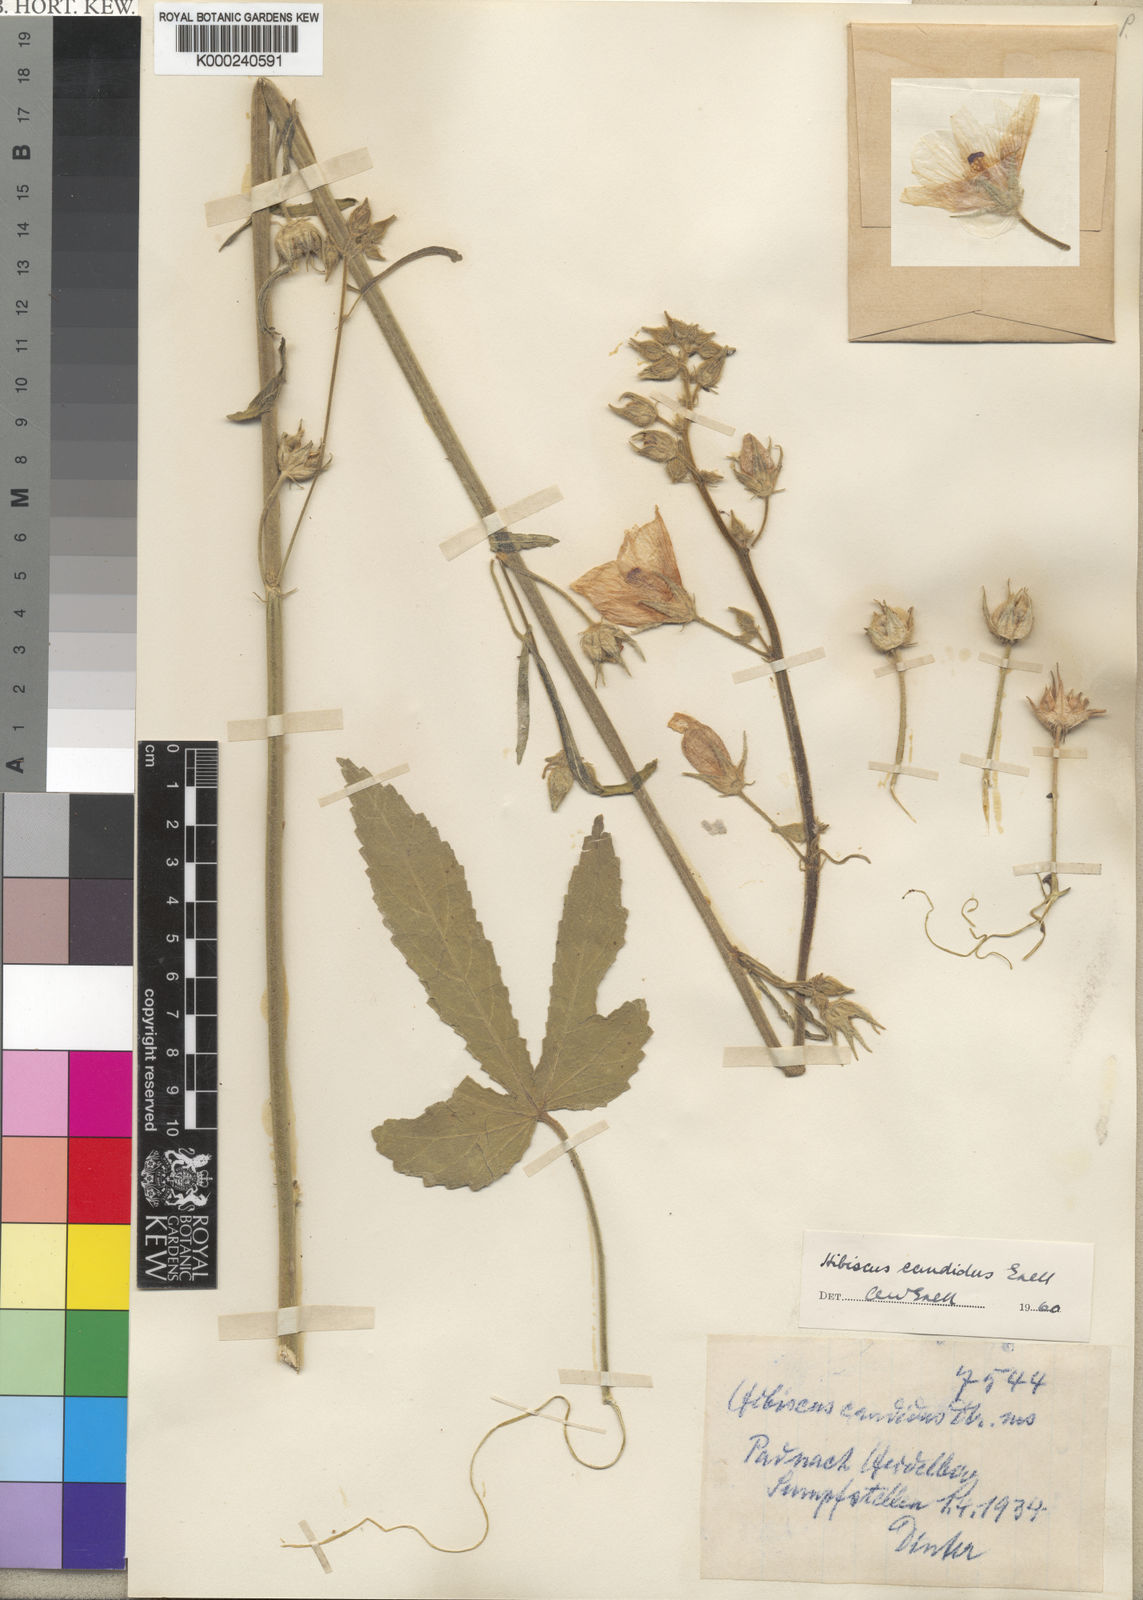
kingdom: Plantae
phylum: Tracheophyta
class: Magnoliopsida
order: Malvales
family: Malvaceae
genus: Hibiscus
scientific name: Hibiscus
